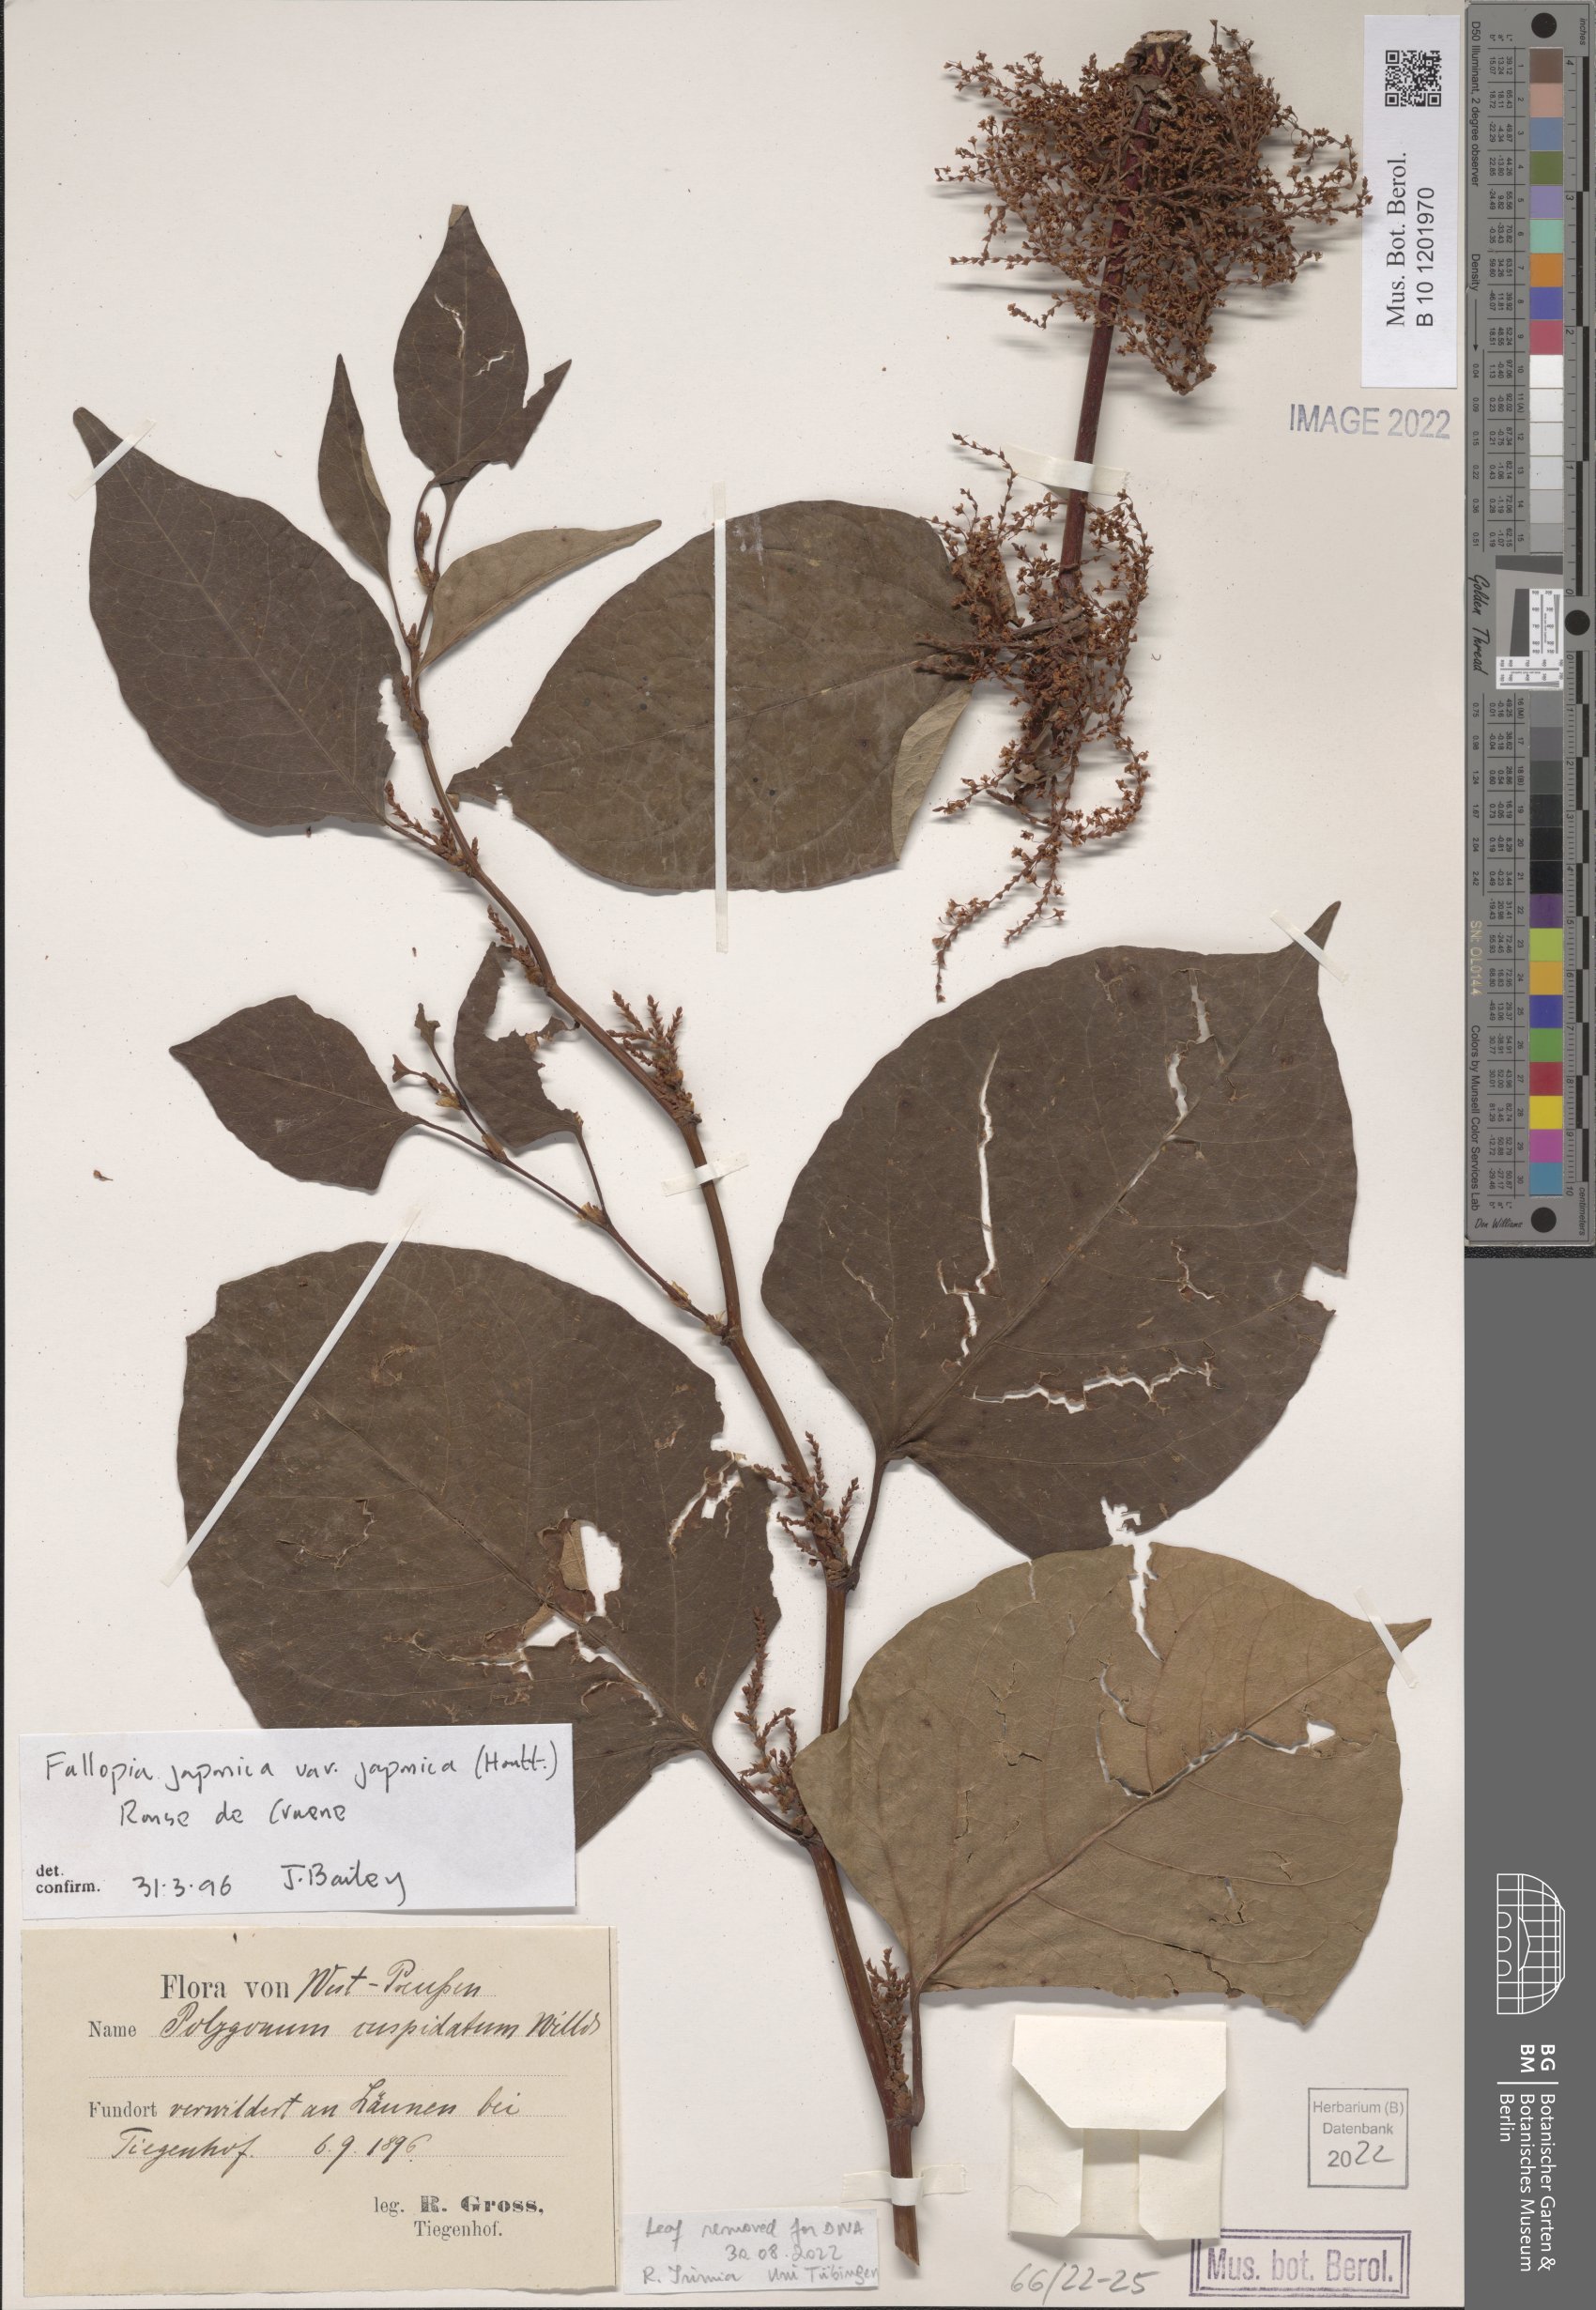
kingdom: Plantae
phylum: Tracheophyta
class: Magnoliopsida
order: Caryophyllales
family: Polygonaceae
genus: Reynoutria
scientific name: Reynoutria japonica
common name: Japanese knotweed
